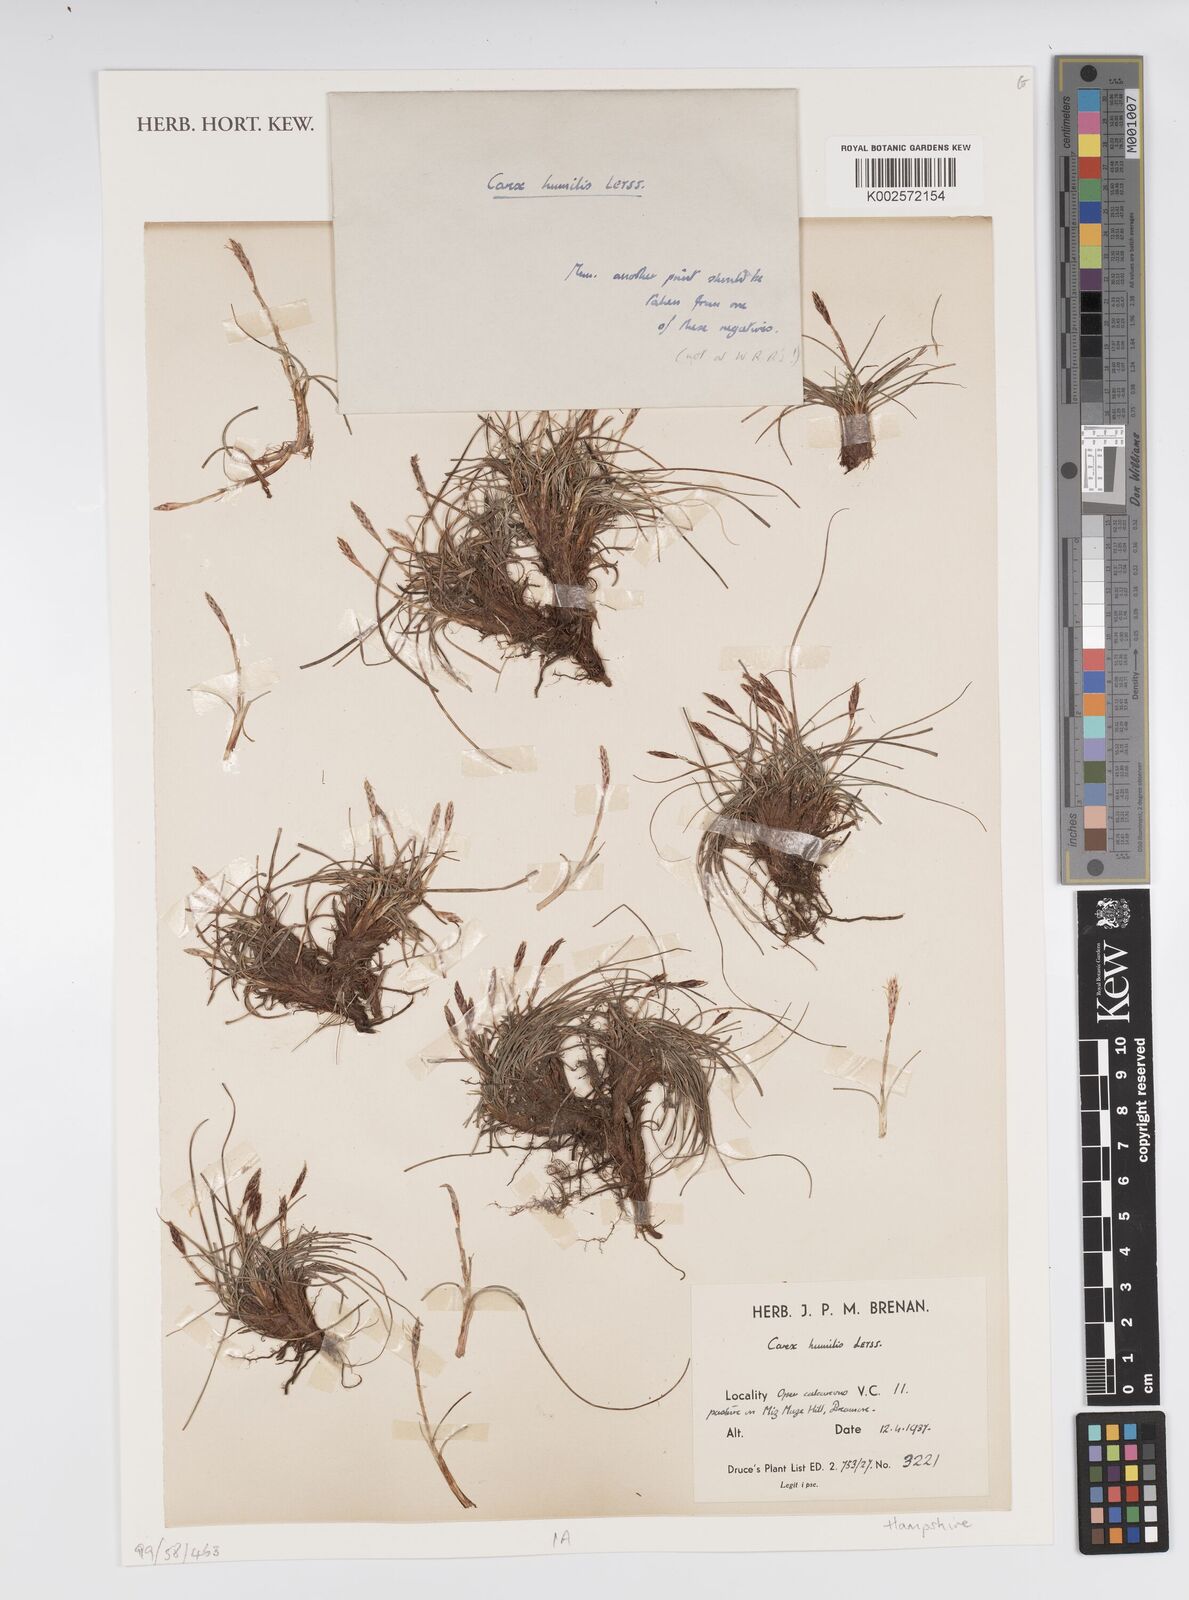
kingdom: Plantae
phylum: Tracheophyta
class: Liliopsida
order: Poales
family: Cyperaceae
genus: Carex
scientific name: Carex humilis
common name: Dwarf sedge
